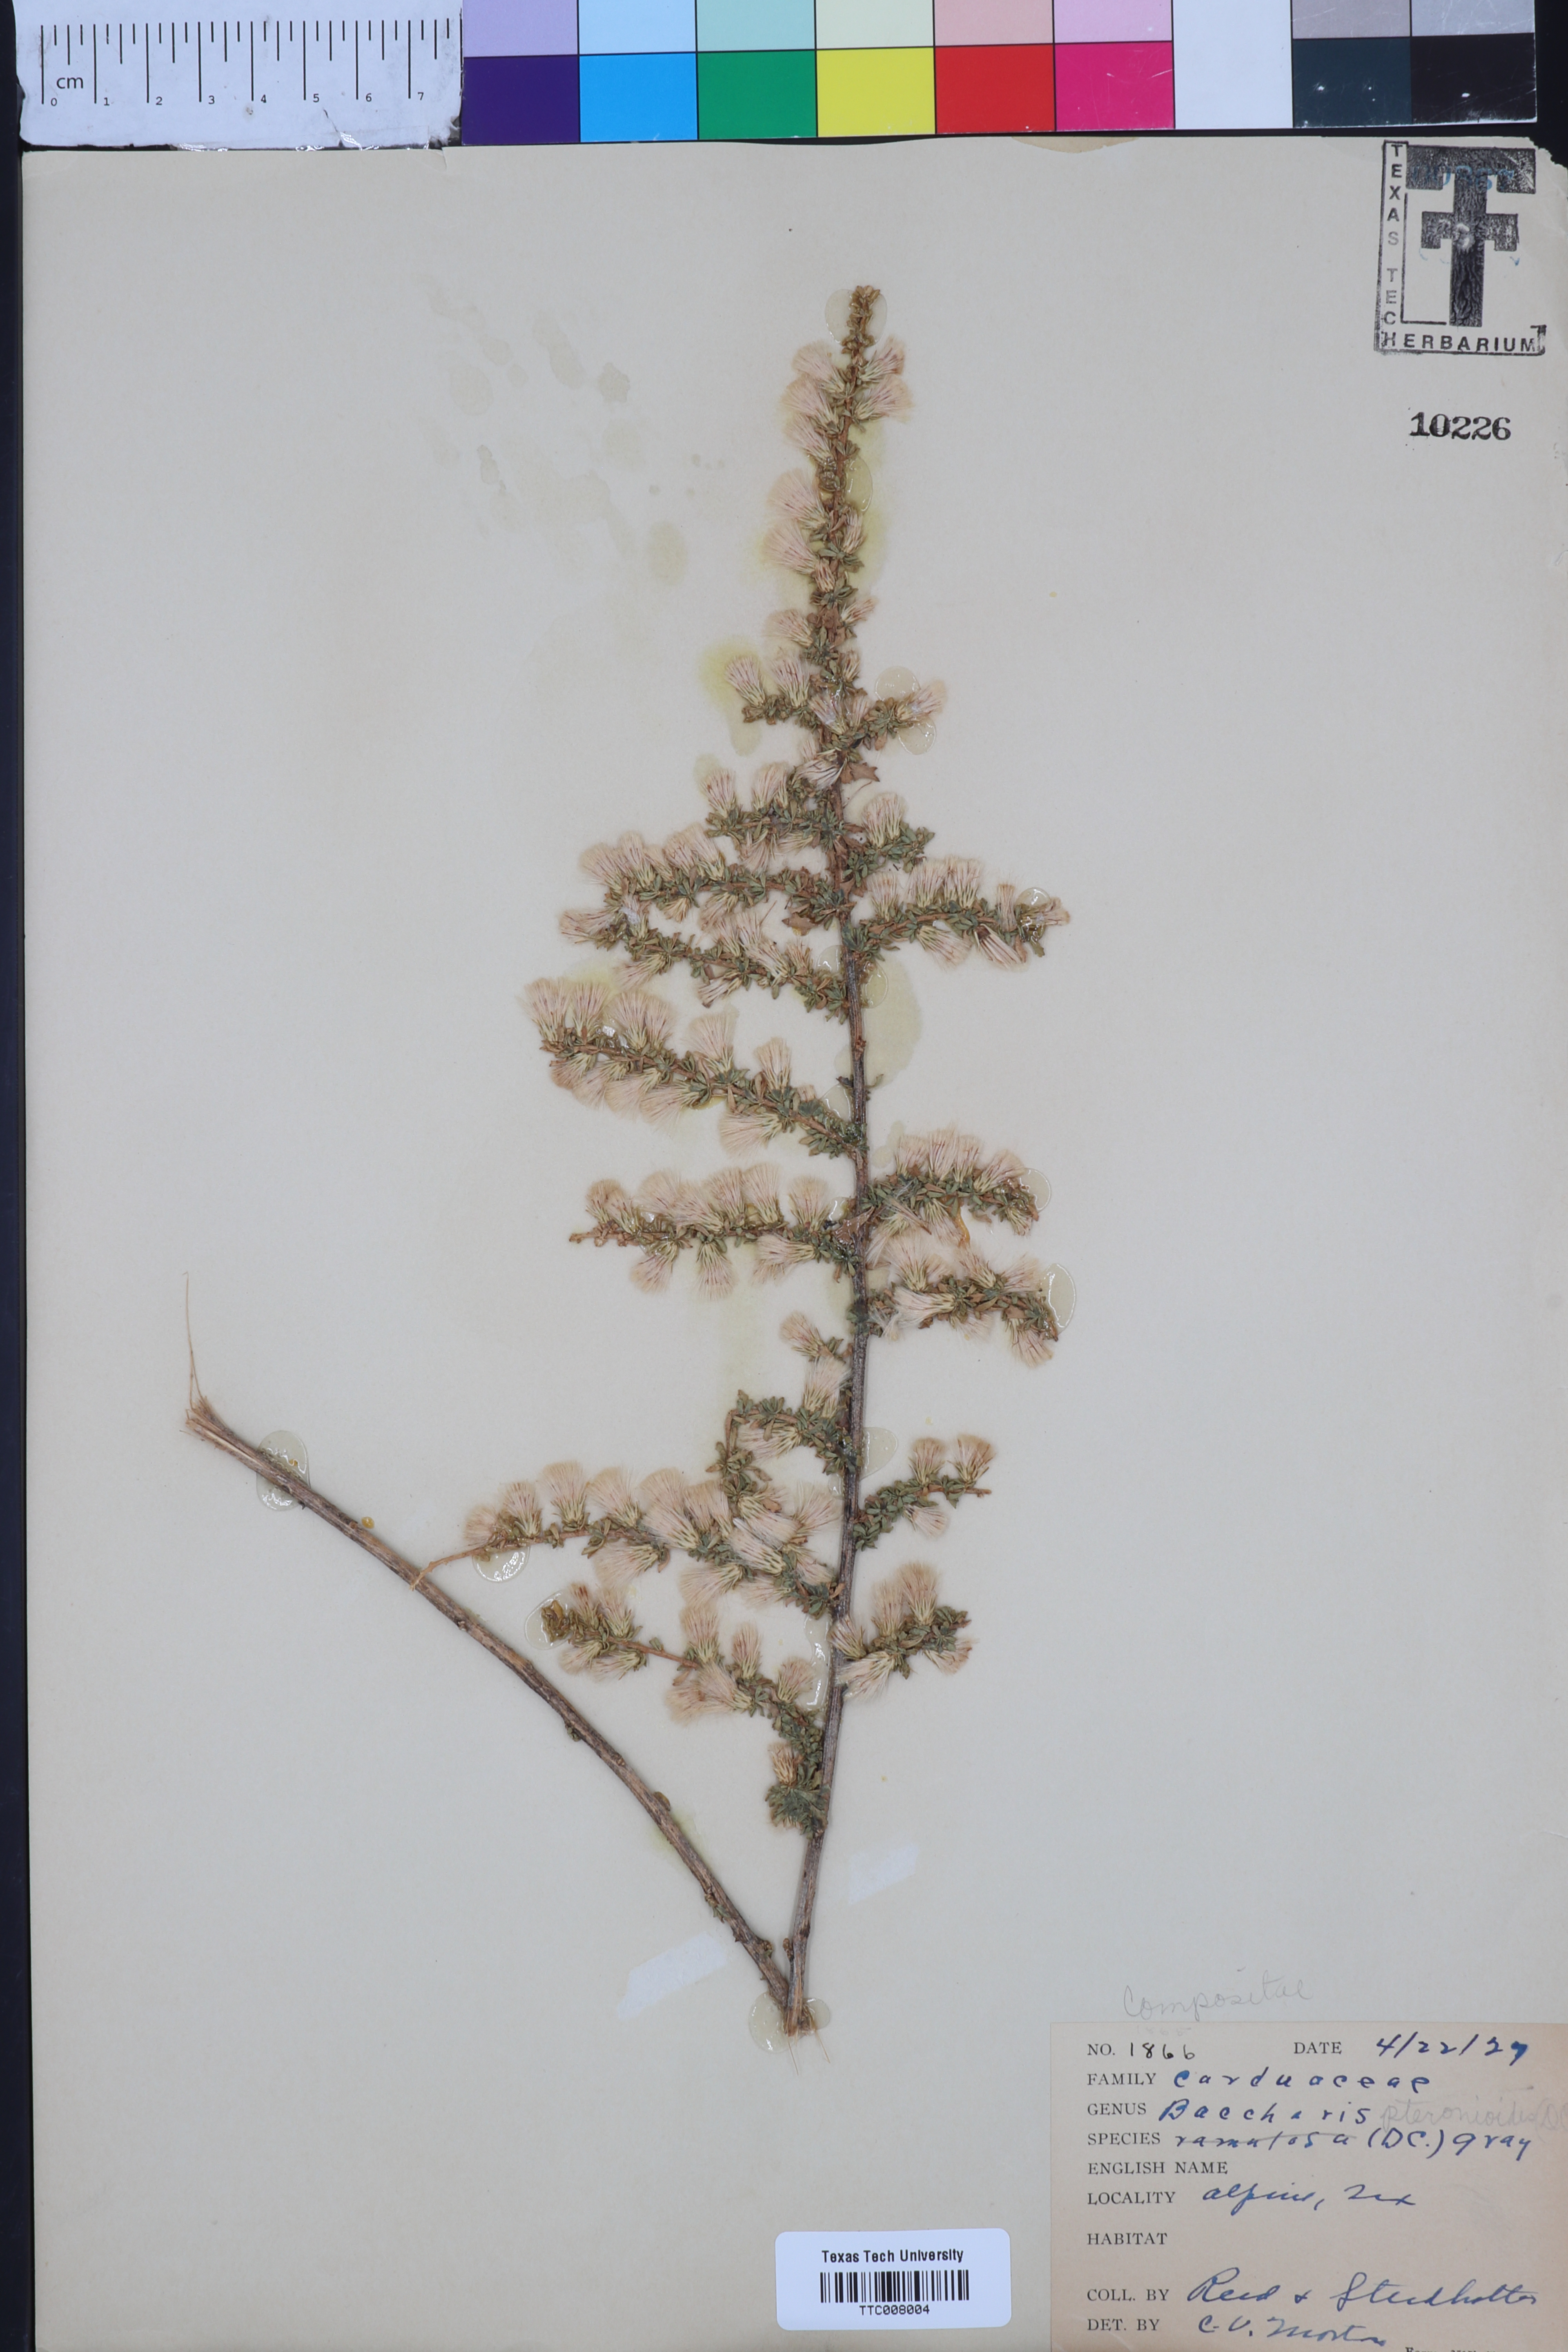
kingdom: Plantae
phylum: Tracheophyta
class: Magnoliopsida
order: Asterales
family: Asteraceae
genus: Baccharis
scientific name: Baccharis pteronioides
